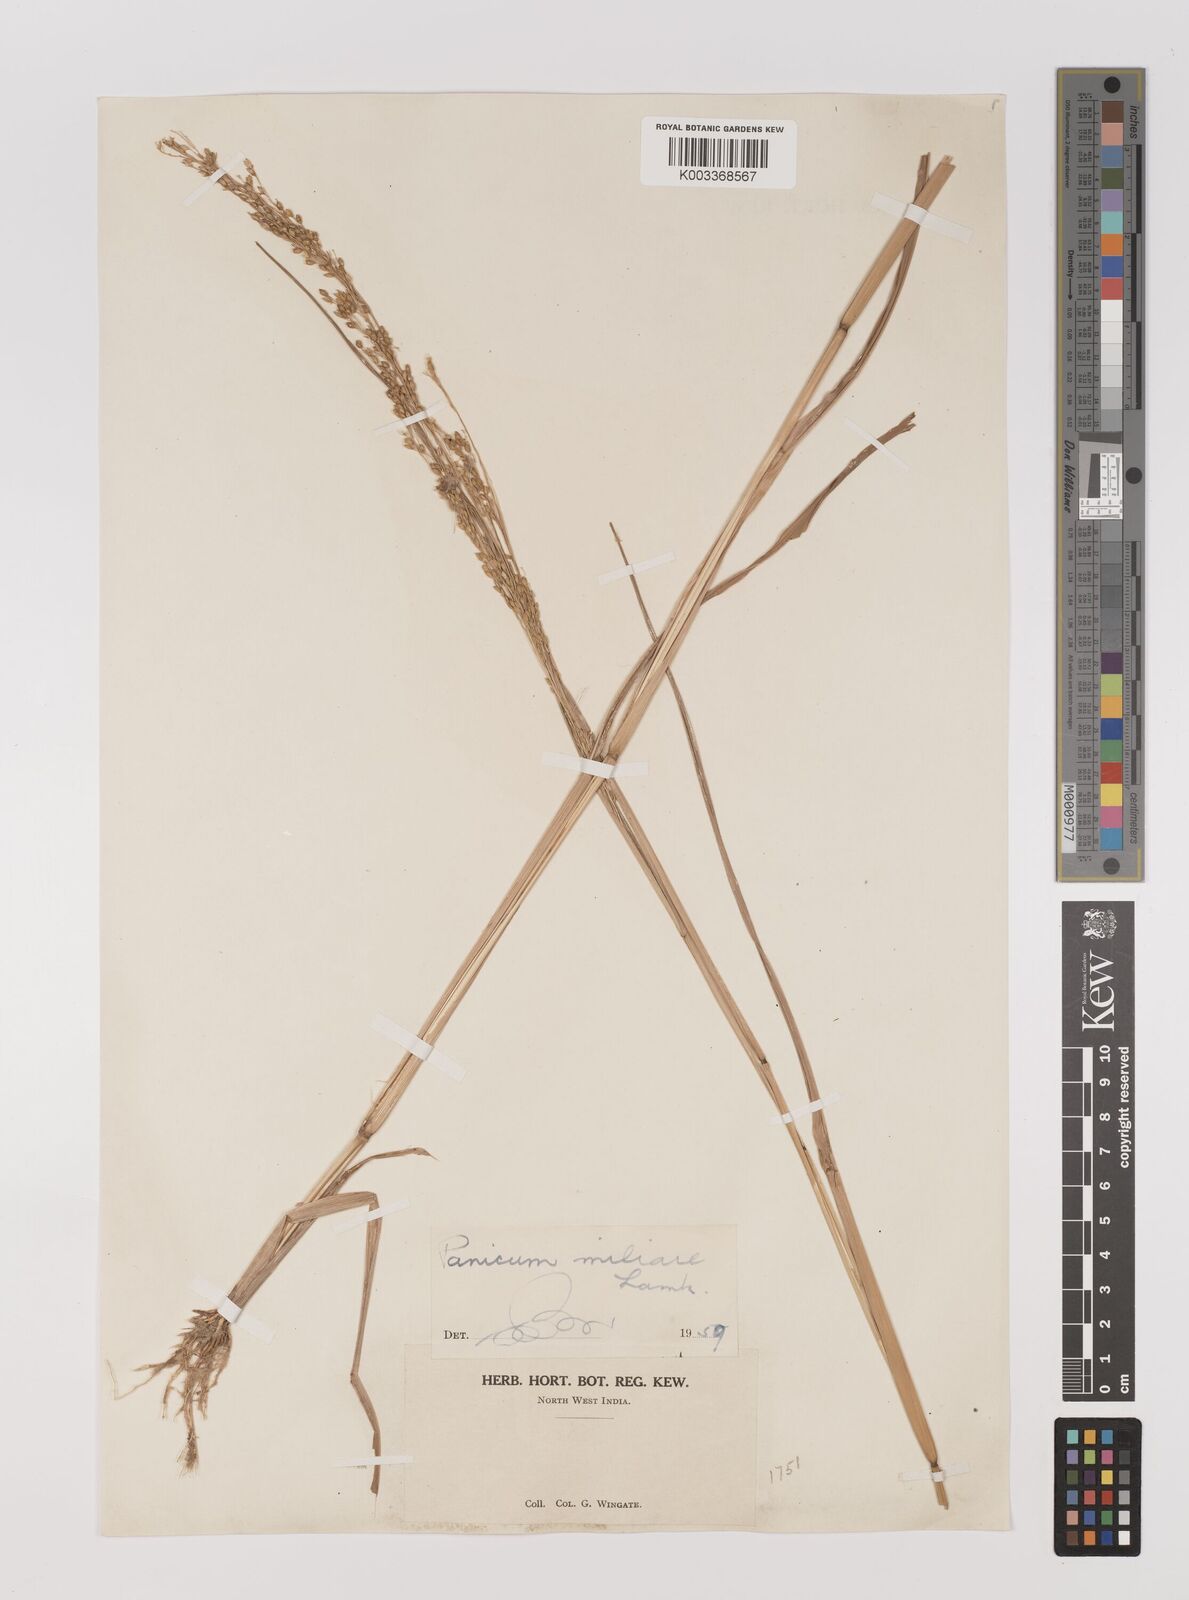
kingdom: Plantae
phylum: Tracheophyta
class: Liliopsida
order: Poales
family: Poaceae
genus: Panicum
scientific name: Panicum sumatrense
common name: Little millet
